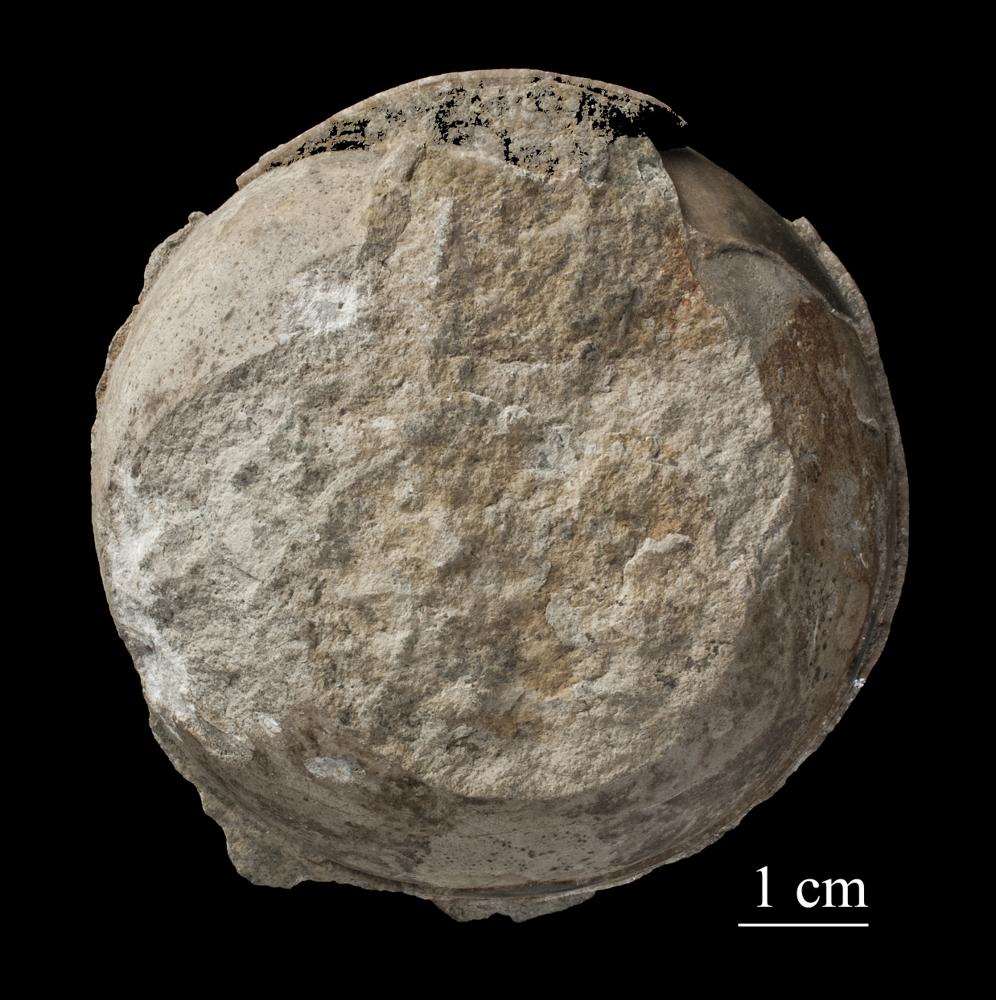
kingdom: Animalia
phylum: Mollusca
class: Gastropoda
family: Lophospiridae
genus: Proturritella
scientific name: Proturritella Turbinites bicarinatus
